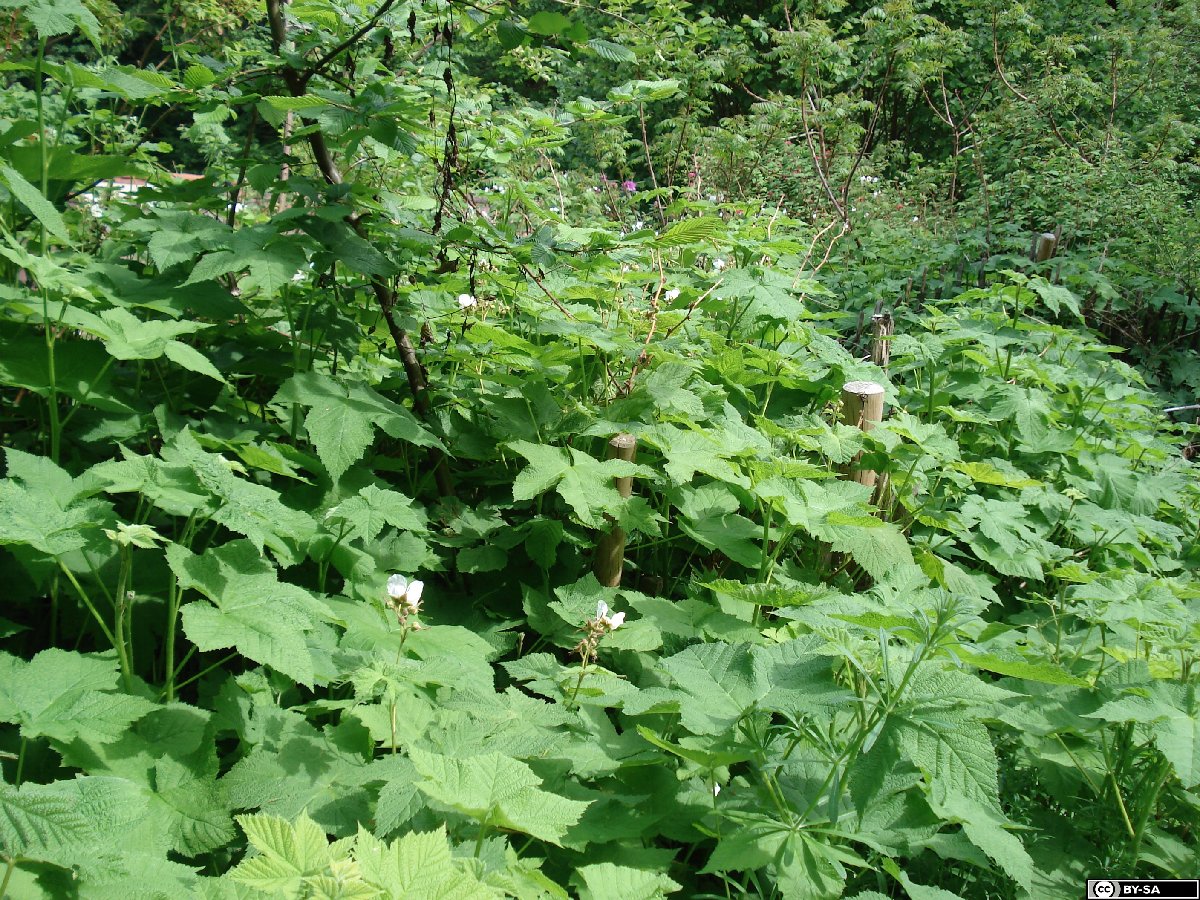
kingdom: Plantae
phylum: Tracheophyta
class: Magnoliopsida
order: Rosales
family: Rosaceae
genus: Rubus
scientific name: Rubus nutkanus
